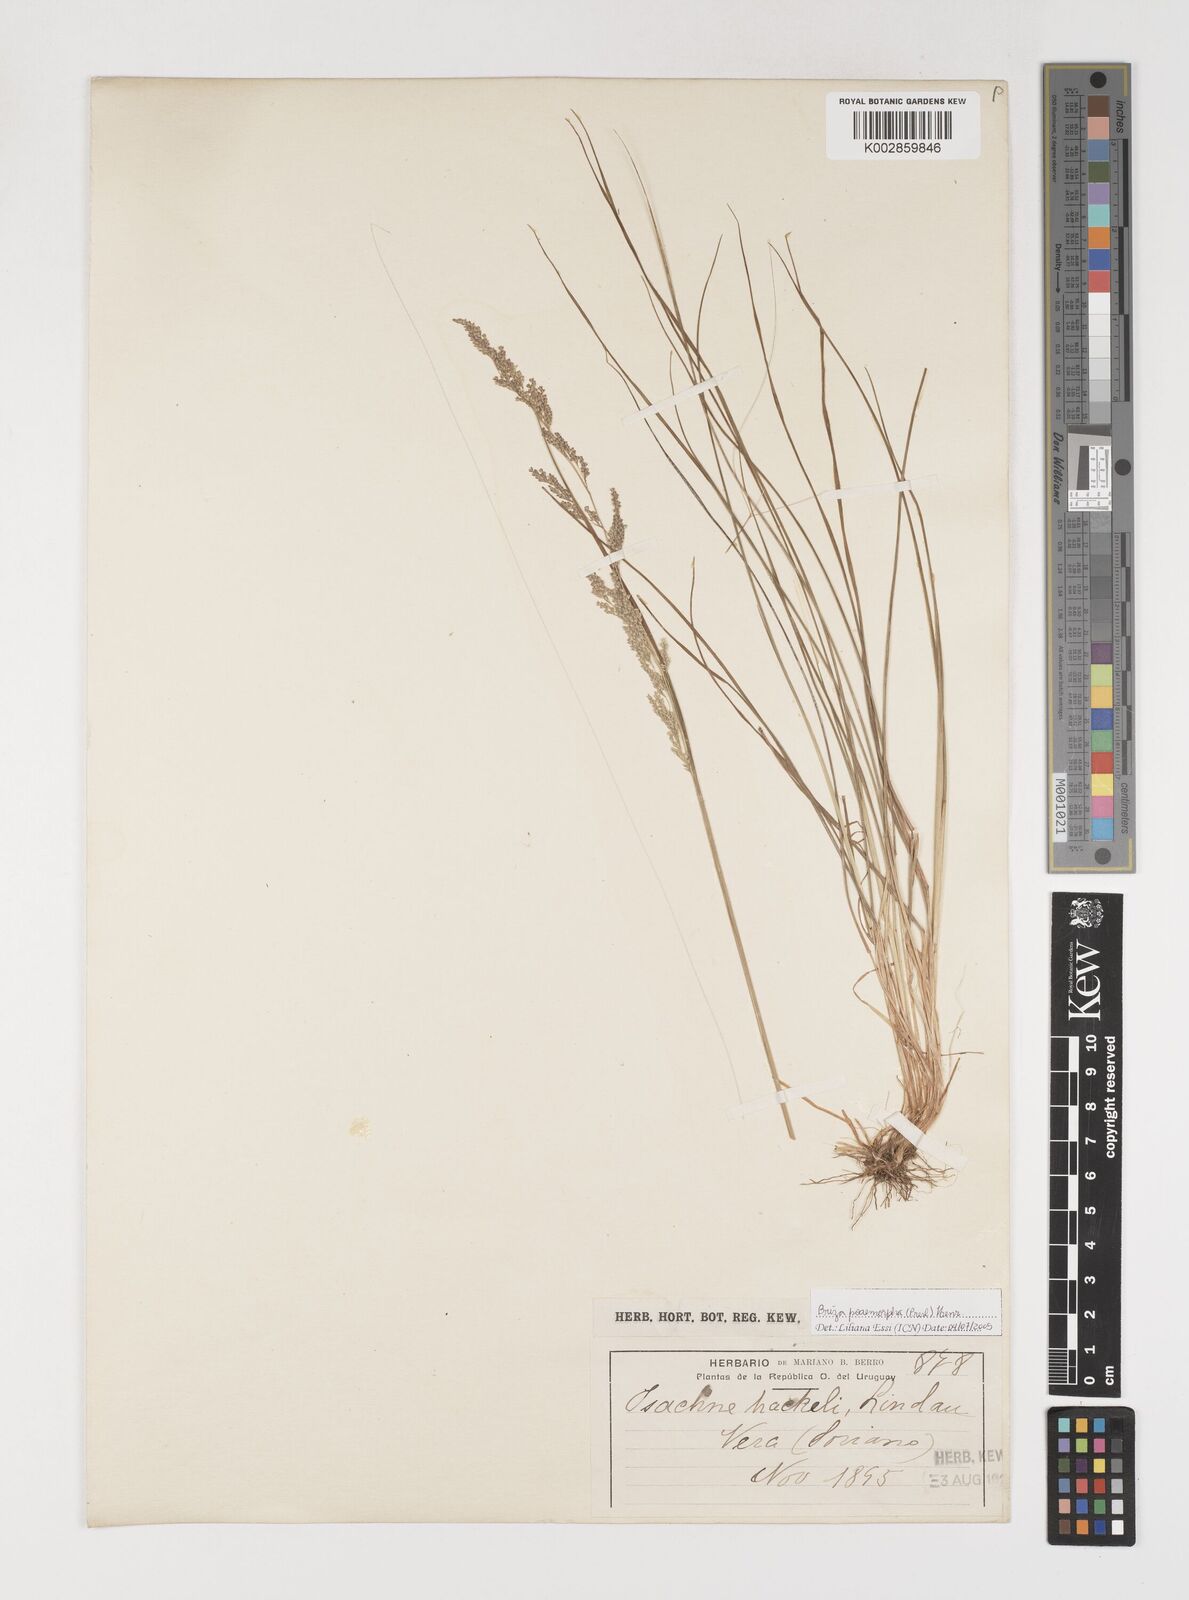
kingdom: Plantae
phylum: Tracheophyta
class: Liliopsida
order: Poales
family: Poaceae
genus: Microbriza
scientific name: Microbriza poimorpha
